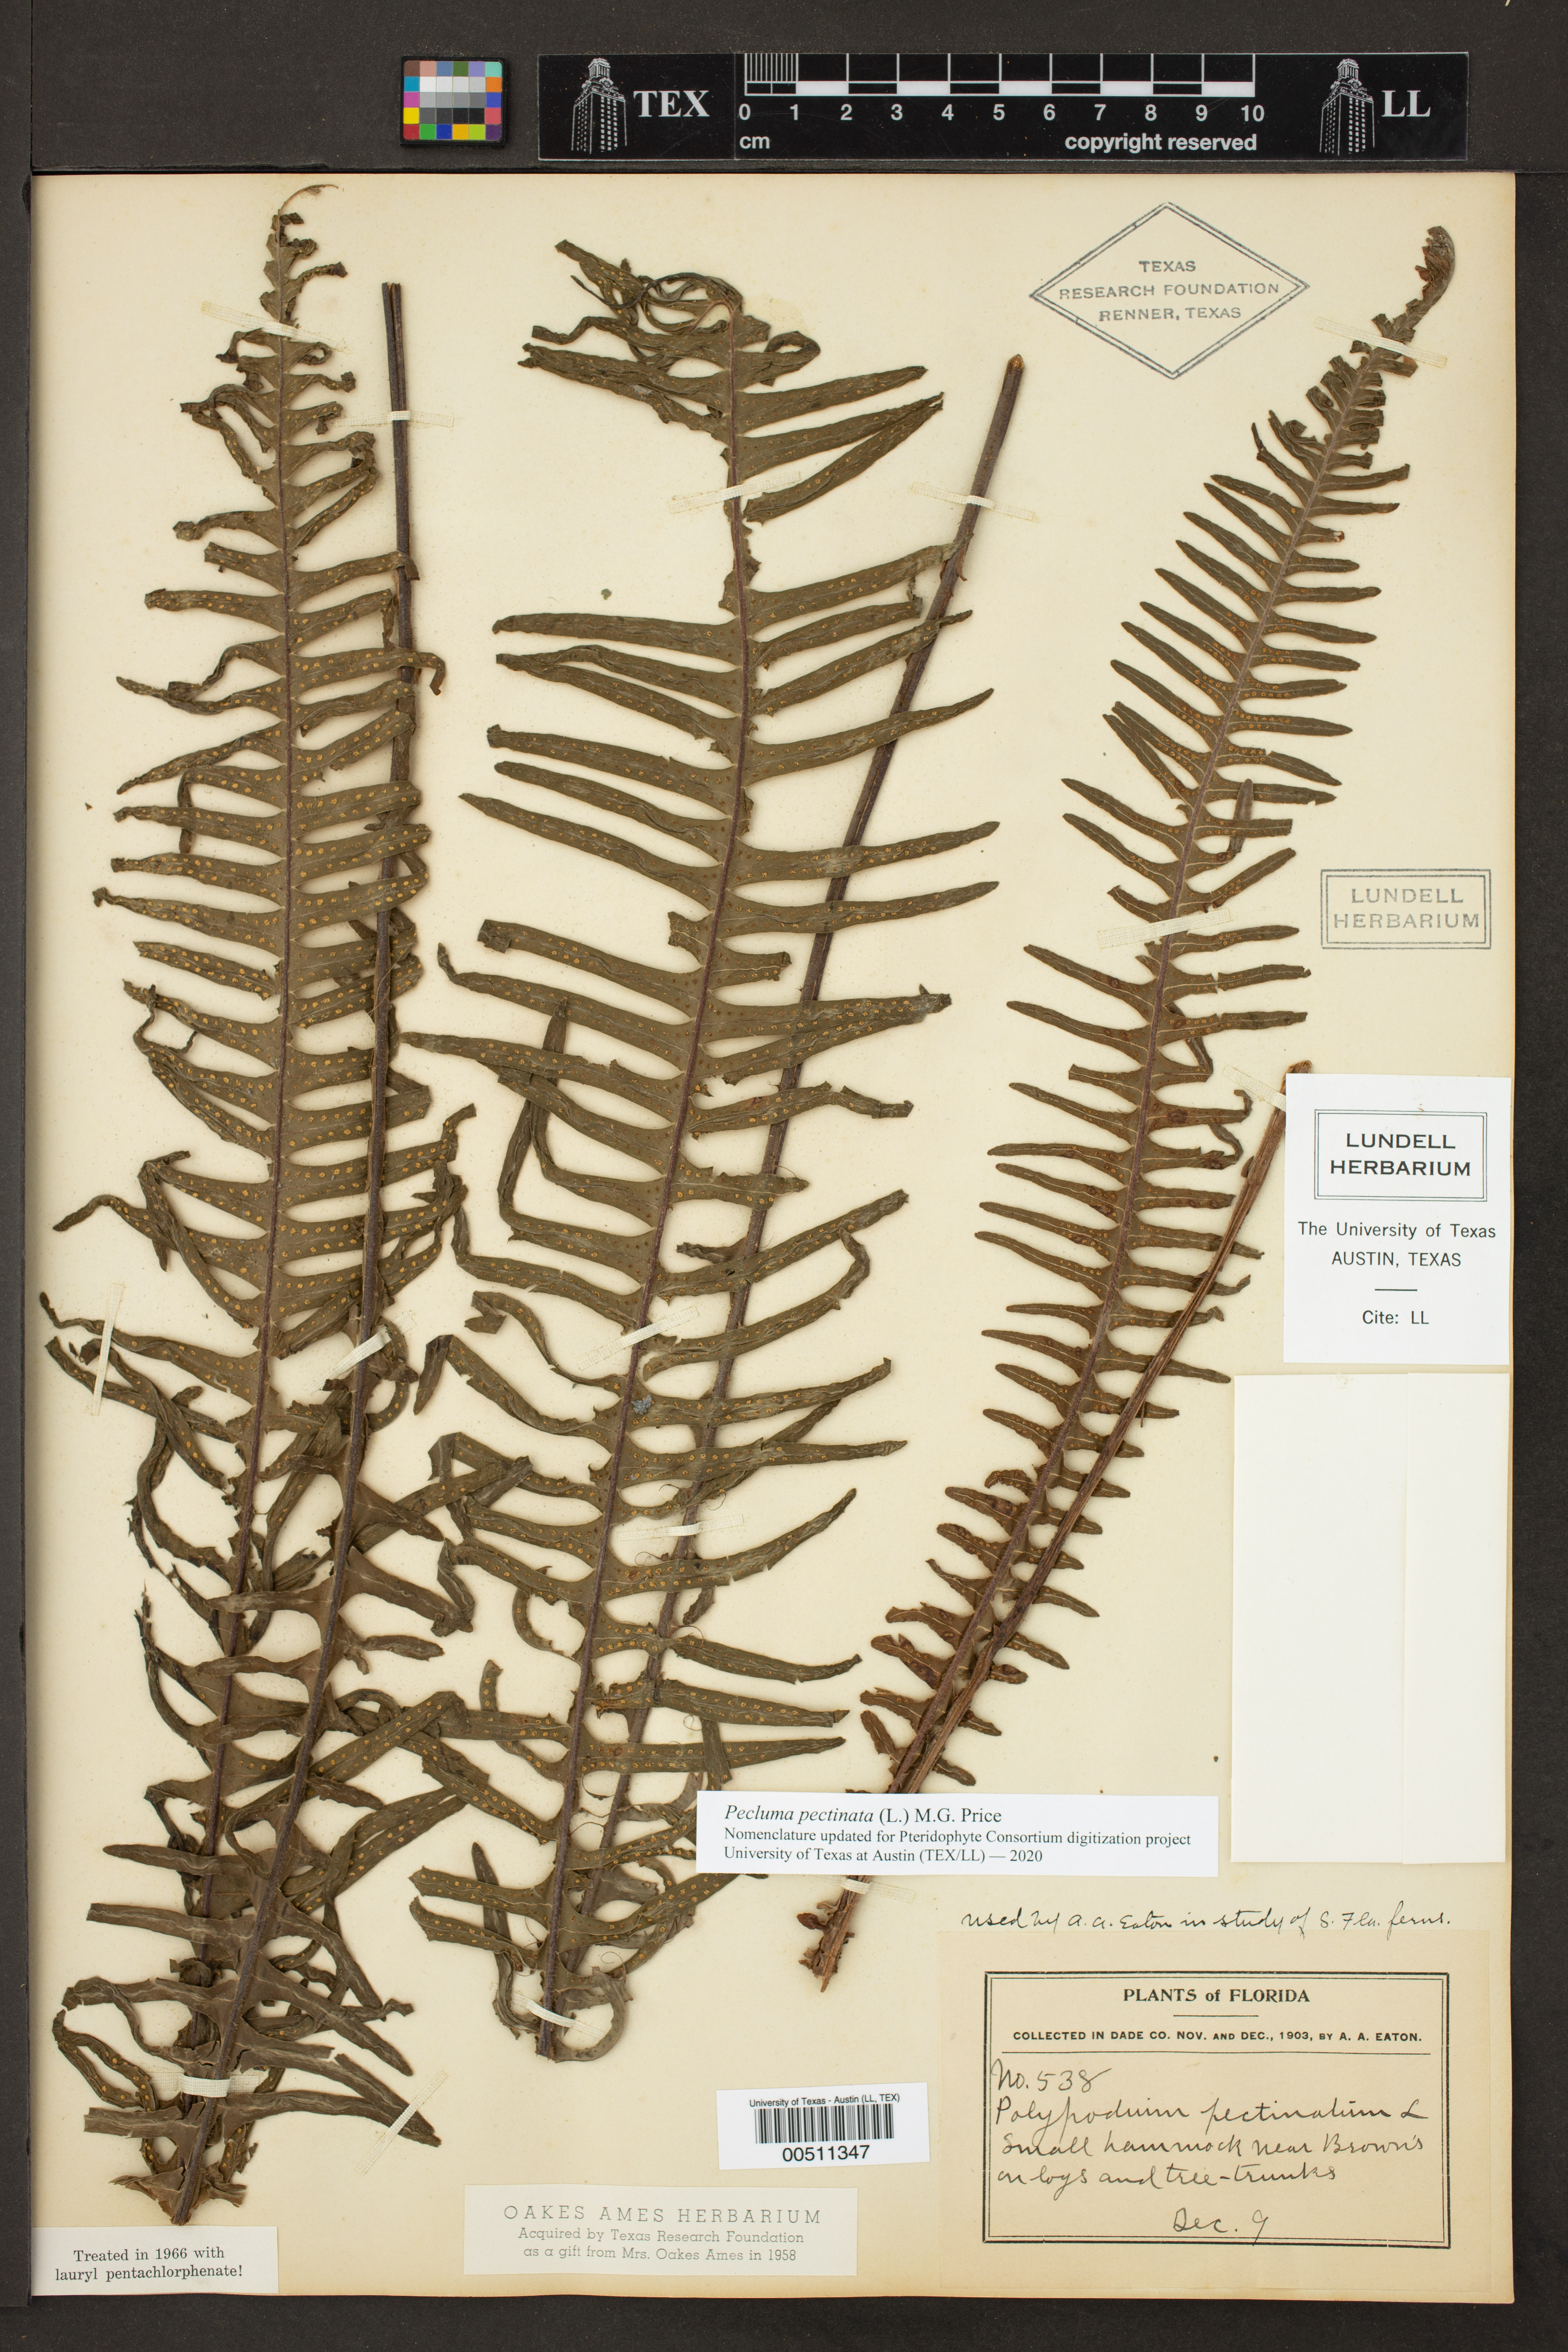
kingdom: Plantae
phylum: Tracheophyta
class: Polypodiopsida
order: Polypodiales
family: Polypodiaceae
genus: Pecluma
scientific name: Pecluma pectinata
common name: Msasa fern
